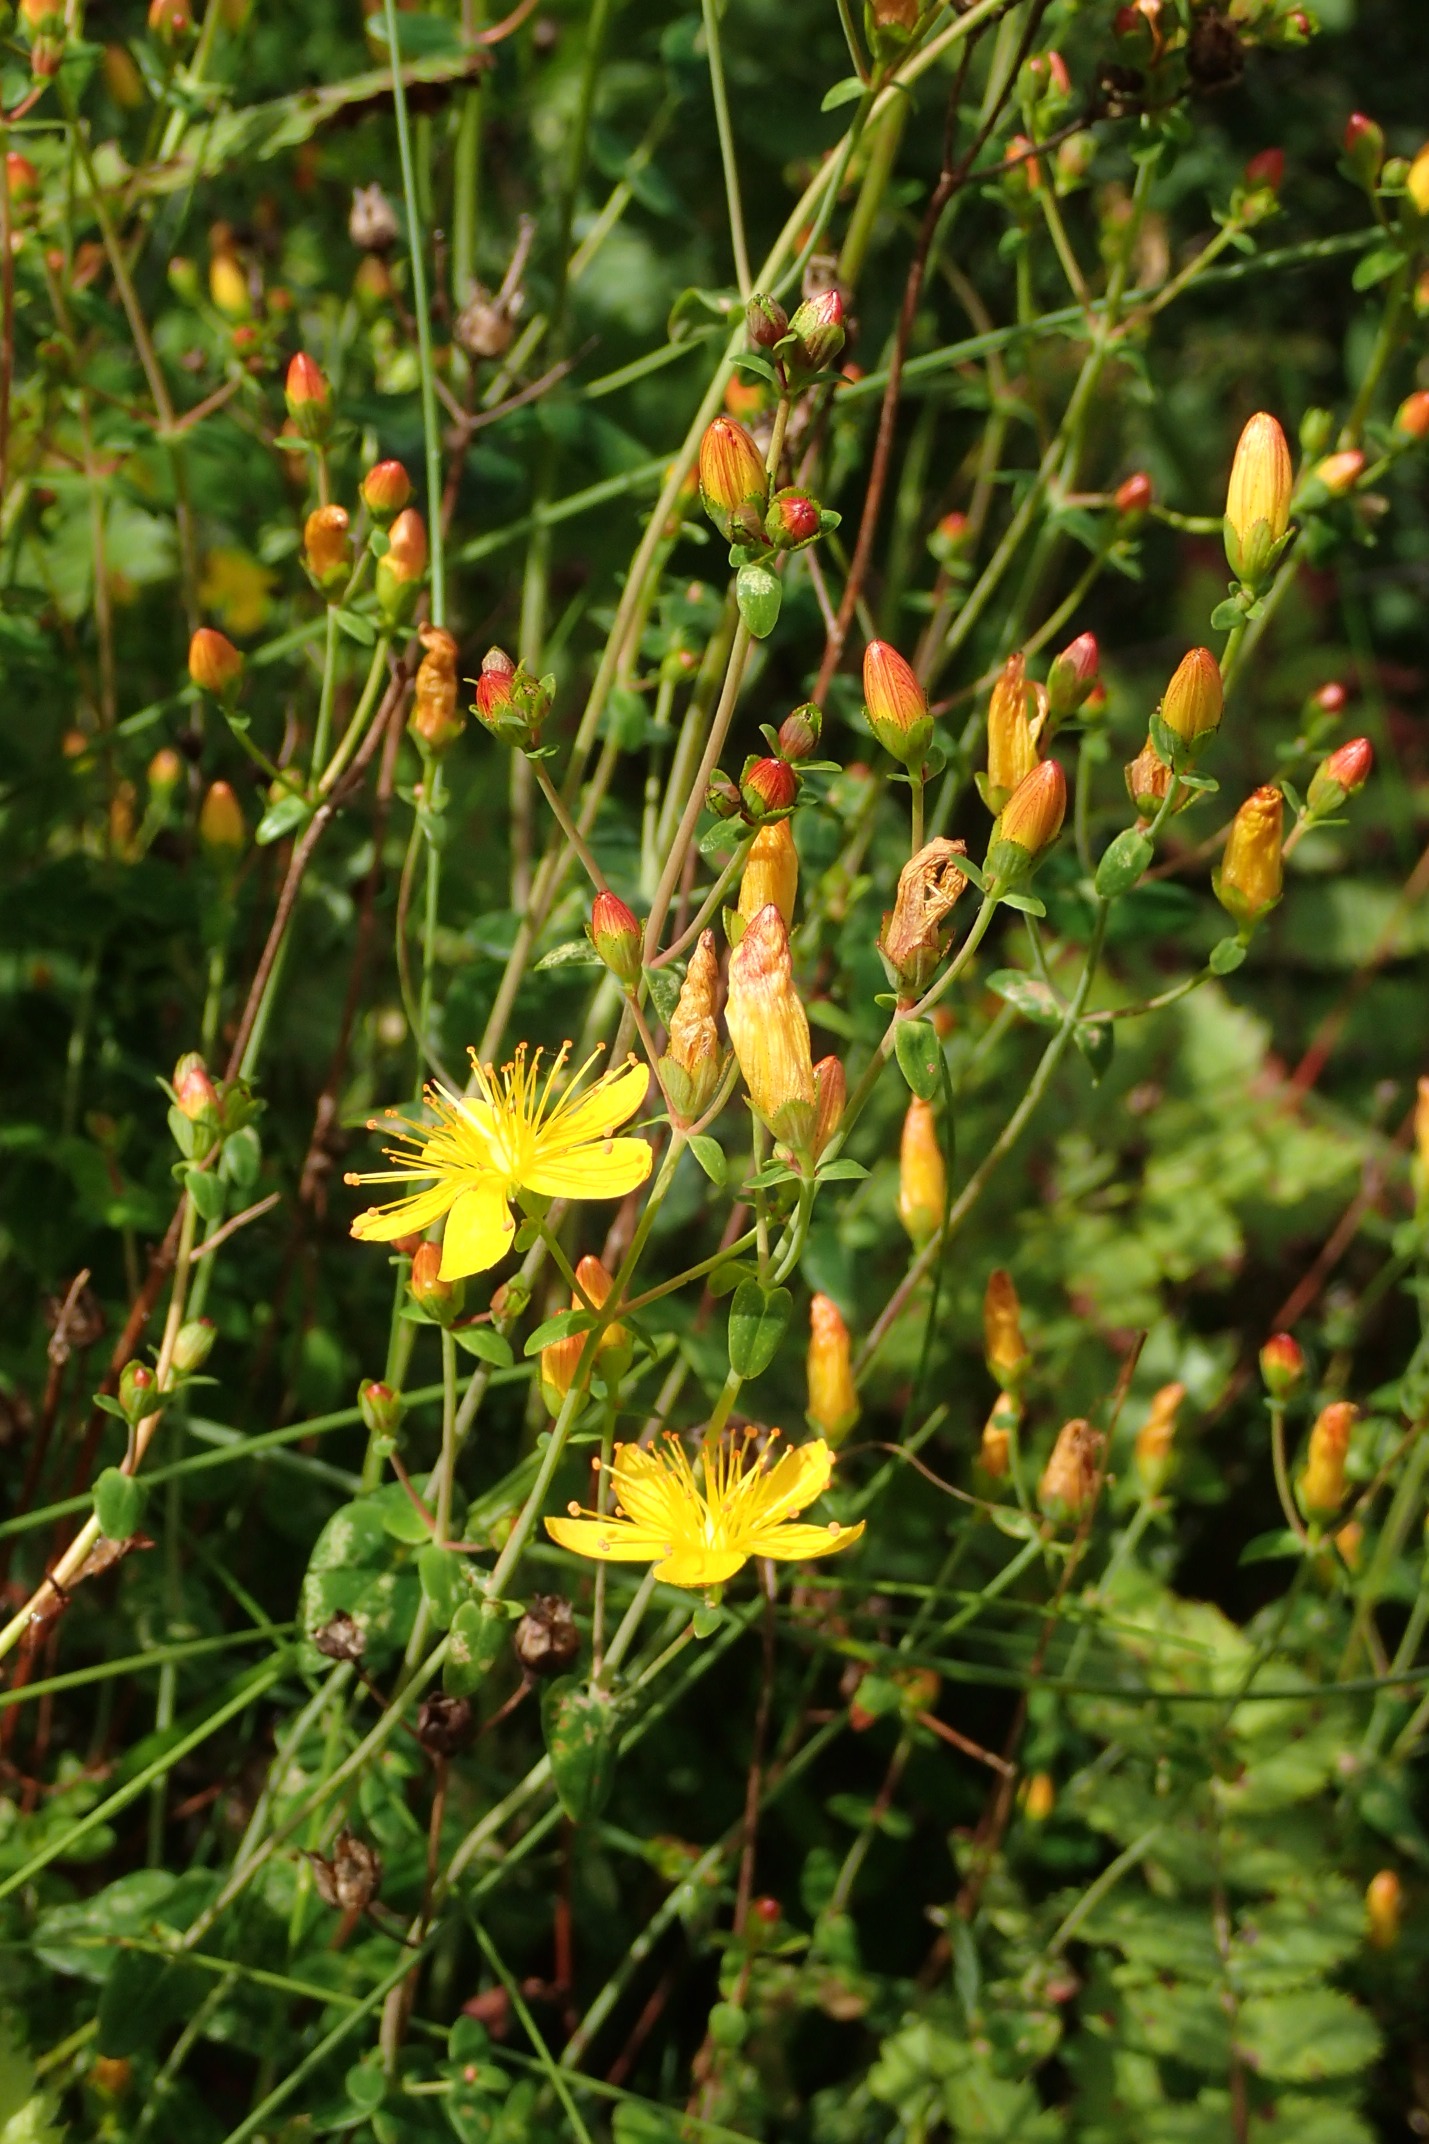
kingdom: Plantae
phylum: Tracheophyta
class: Magnoliopsida
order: Malpighiales
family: Hypericaceae
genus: Hypericum
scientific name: Hypericum pulchrum
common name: Smuk perikon
